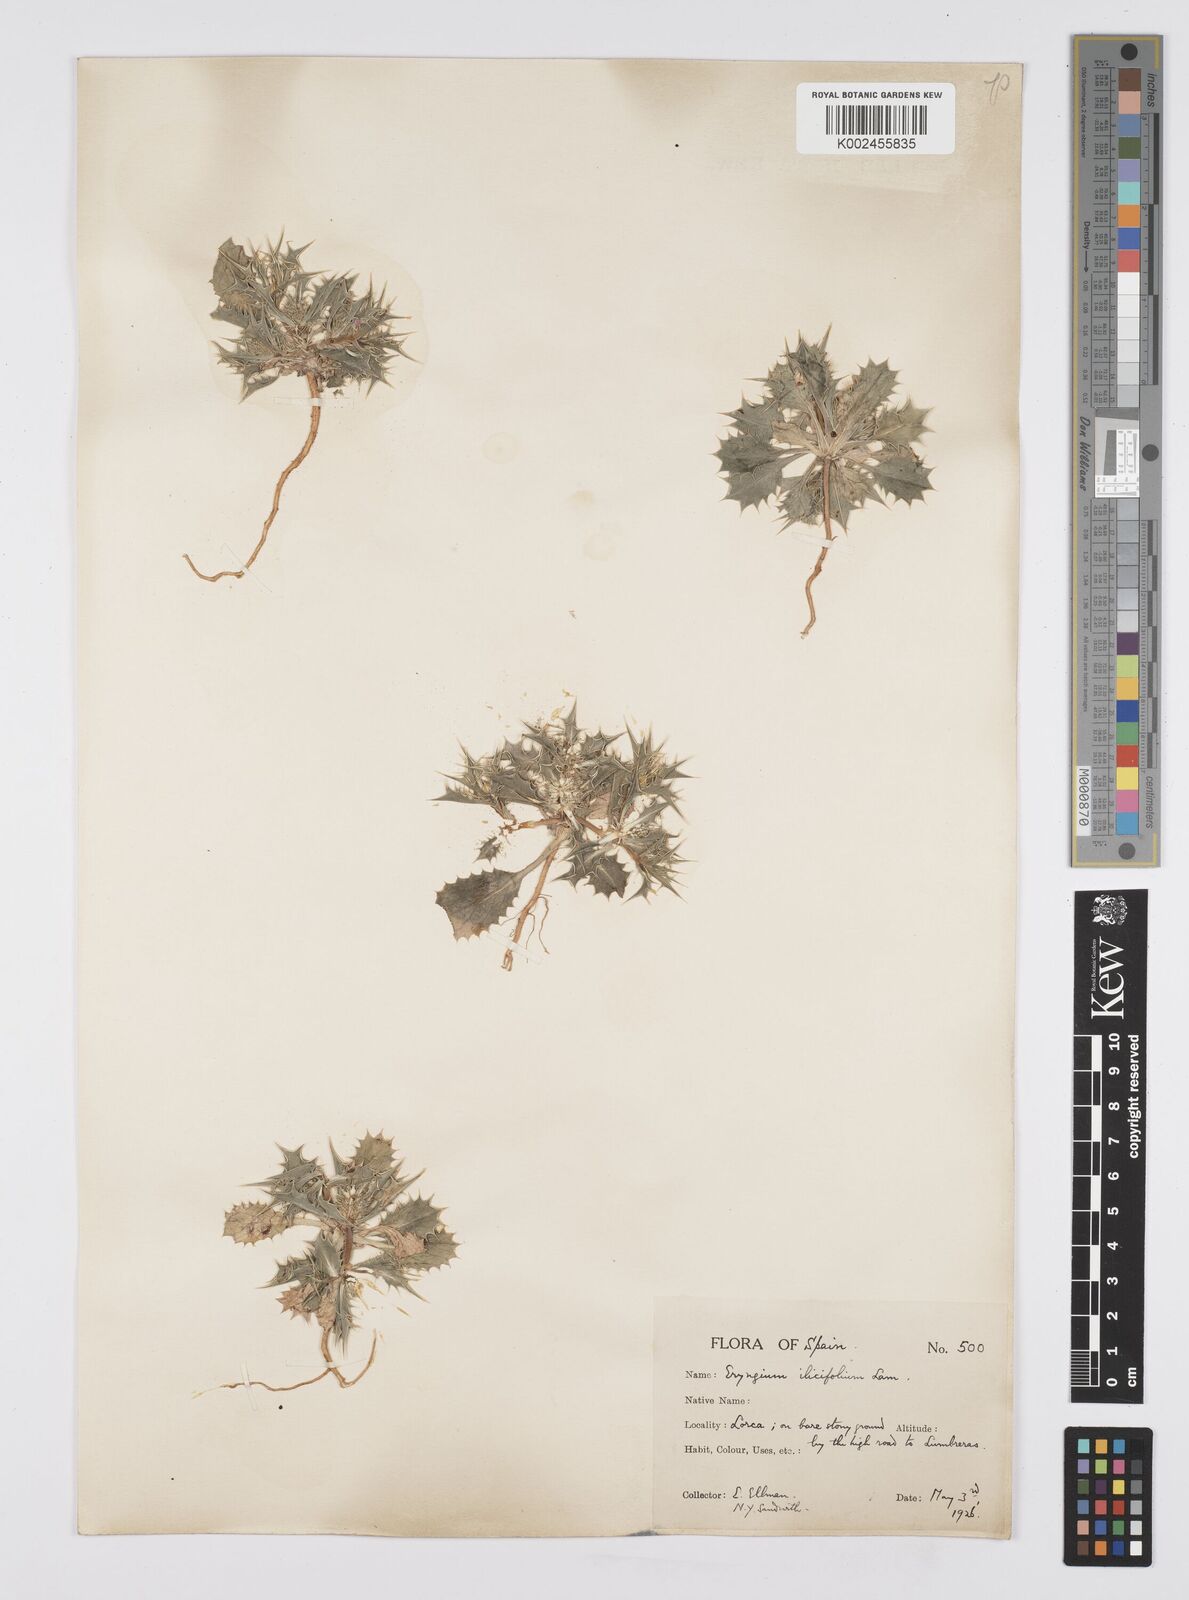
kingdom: Plantae
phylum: Tracheophyta
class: Magnoliopsida
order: Apiales
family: Apiaceae
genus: Eryngium
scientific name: Eryngium
